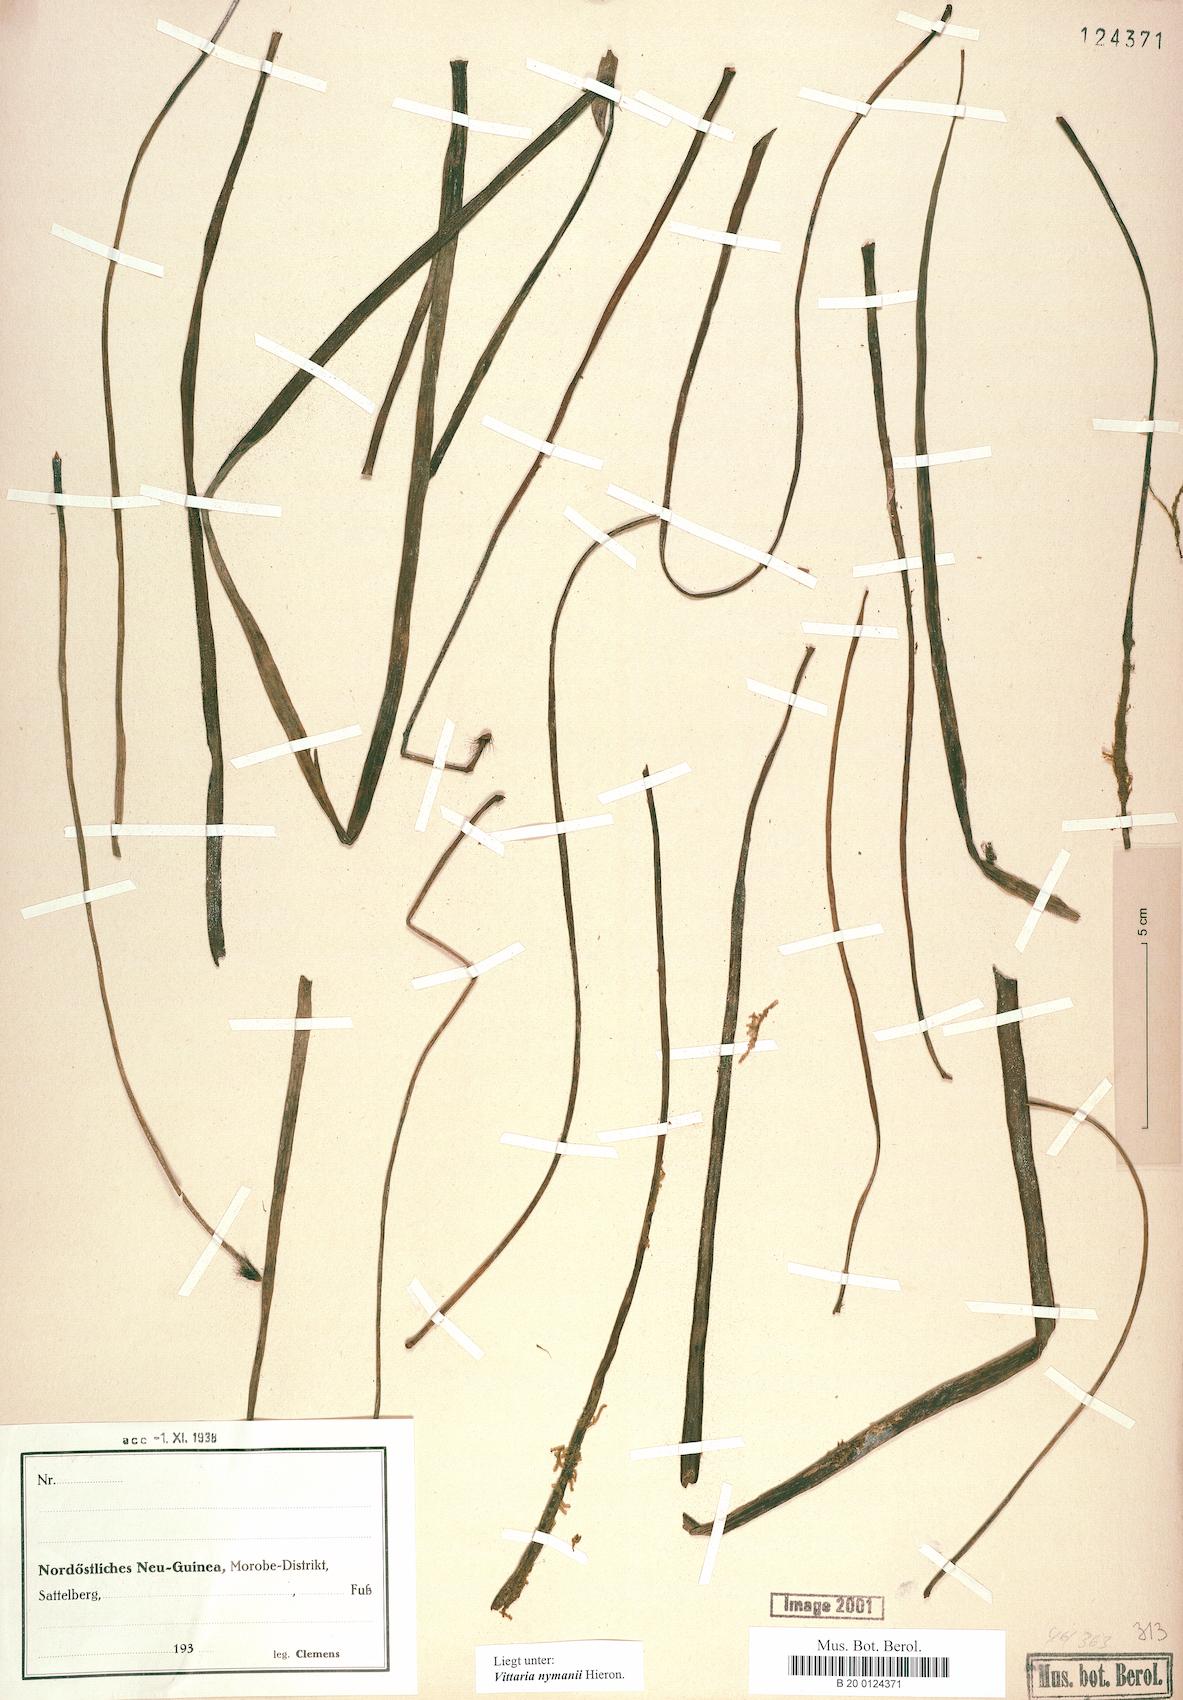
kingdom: Plantae
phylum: Tracheophyta
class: Polypodiopsida
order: Polypodiales
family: Pteridaceae
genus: Haplopteris
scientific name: Haplopteris elongata
